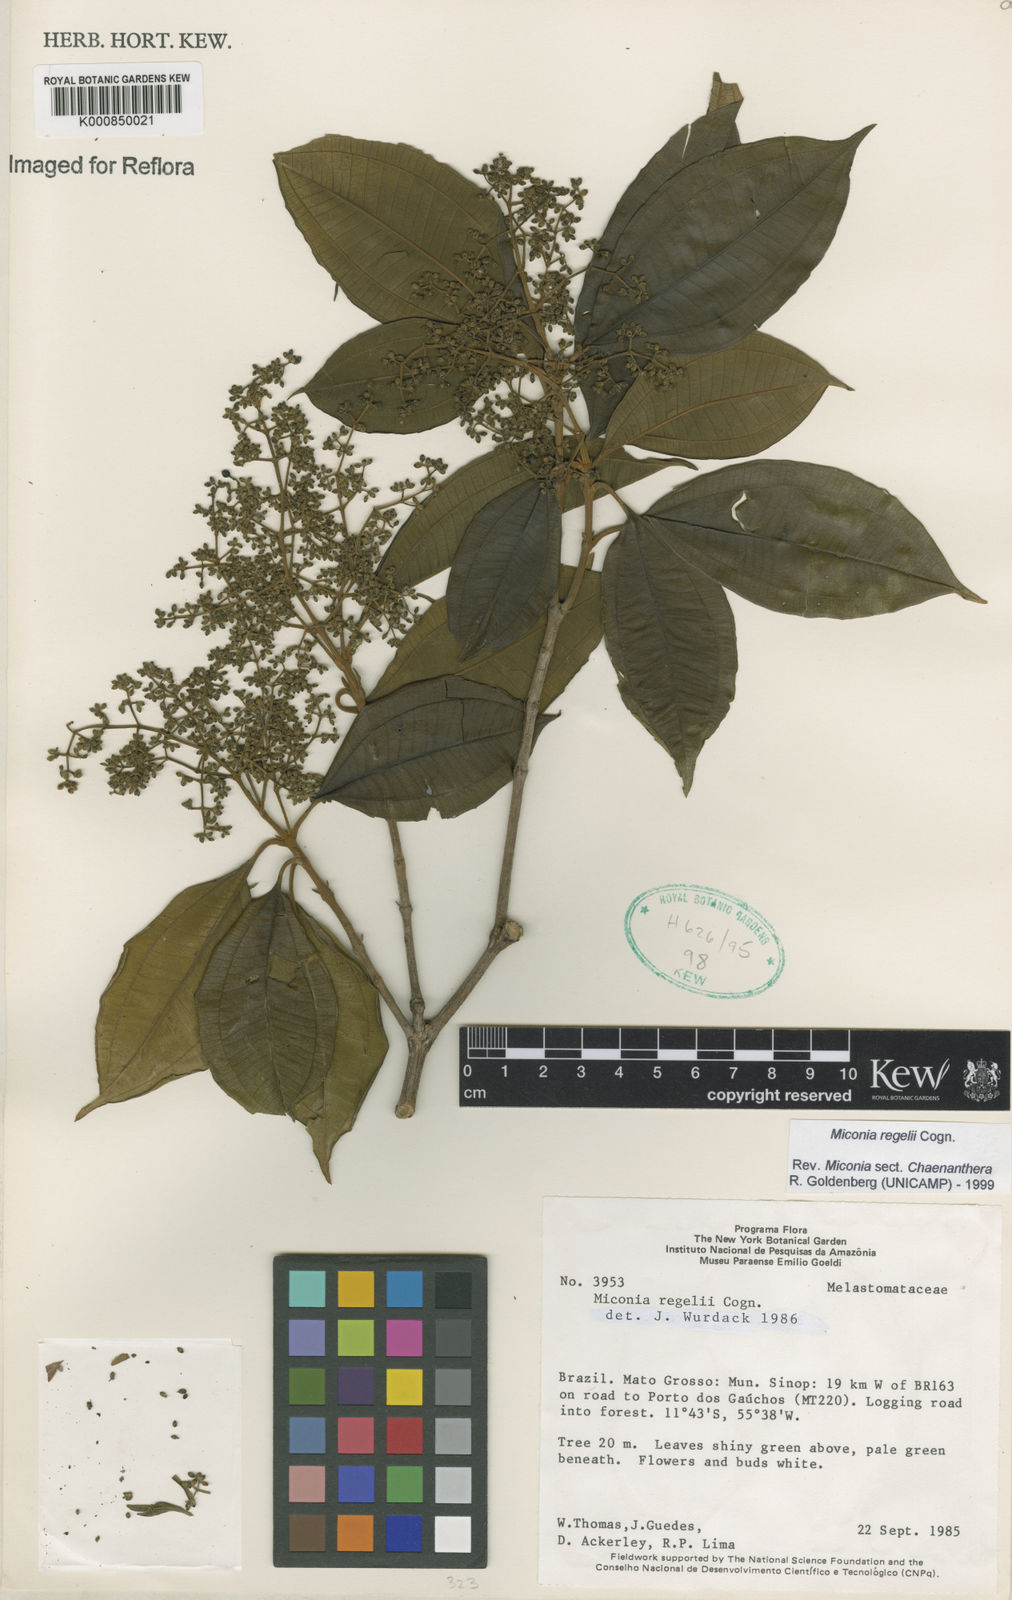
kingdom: Plantae
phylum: Tracheophyta
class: Magnoliopsida
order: Myrtales
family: Melastomataceae
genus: Miconia
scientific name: Miconia regelii
